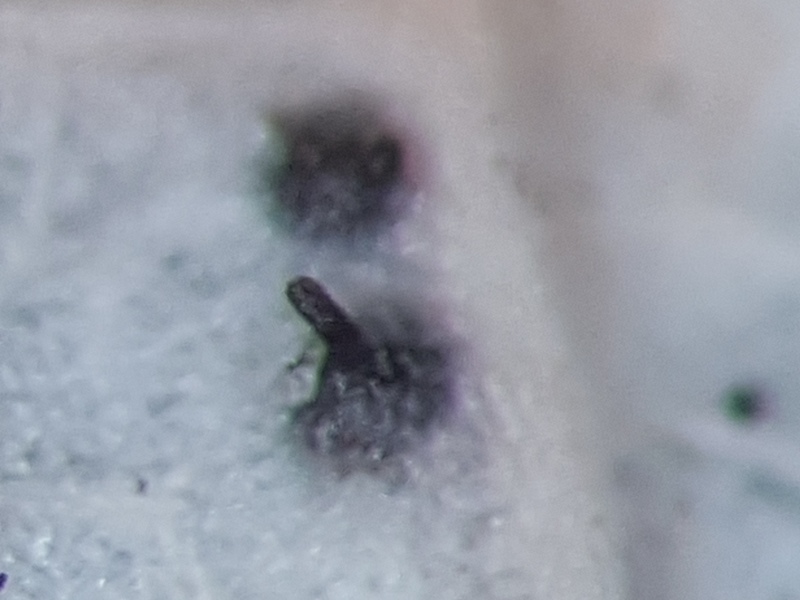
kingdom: Fungi
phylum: Ascomycota
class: Sordariomycetes
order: Diaporthales
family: Gnomoniaceae
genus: Apiognomonia
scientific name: Apiognomonia errabunda
